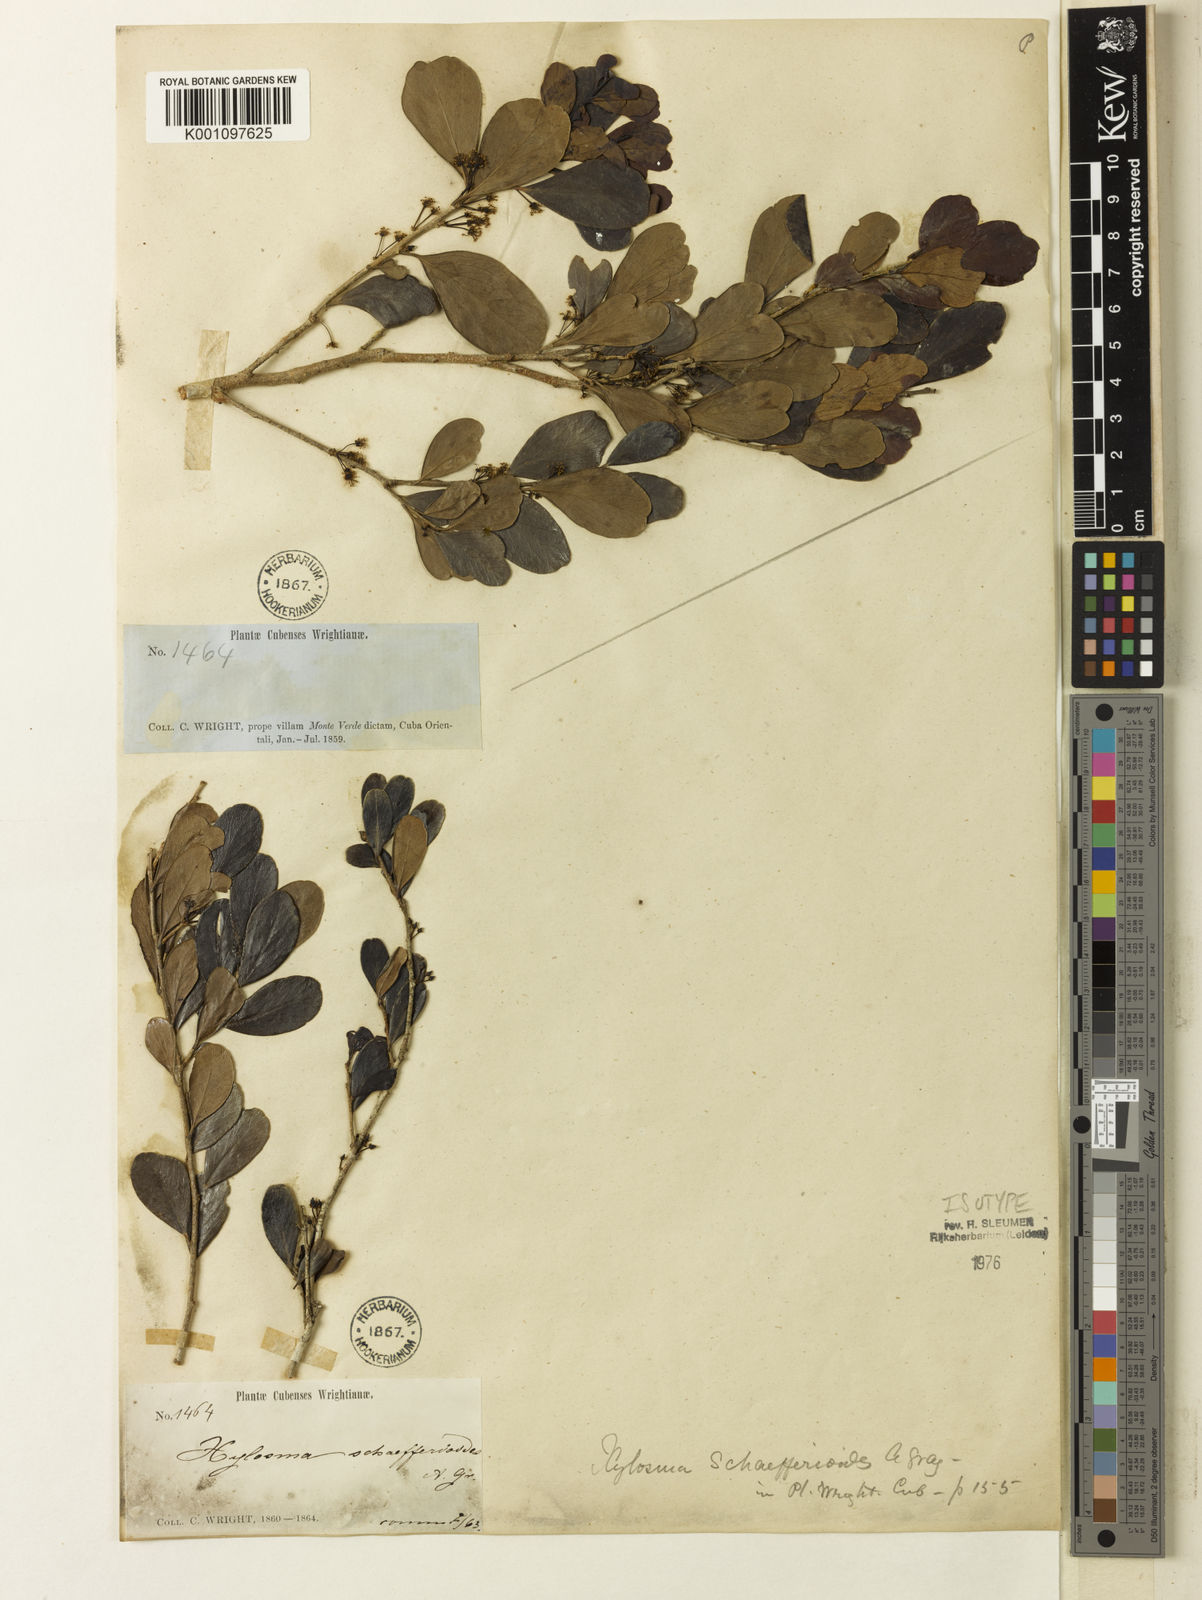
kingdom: Plantae
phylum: Tracheophyta
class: Magnoliopsida
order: Malpighiales
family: Salicaceae
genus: Xylosma
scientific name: Xylosma schaefferioides
